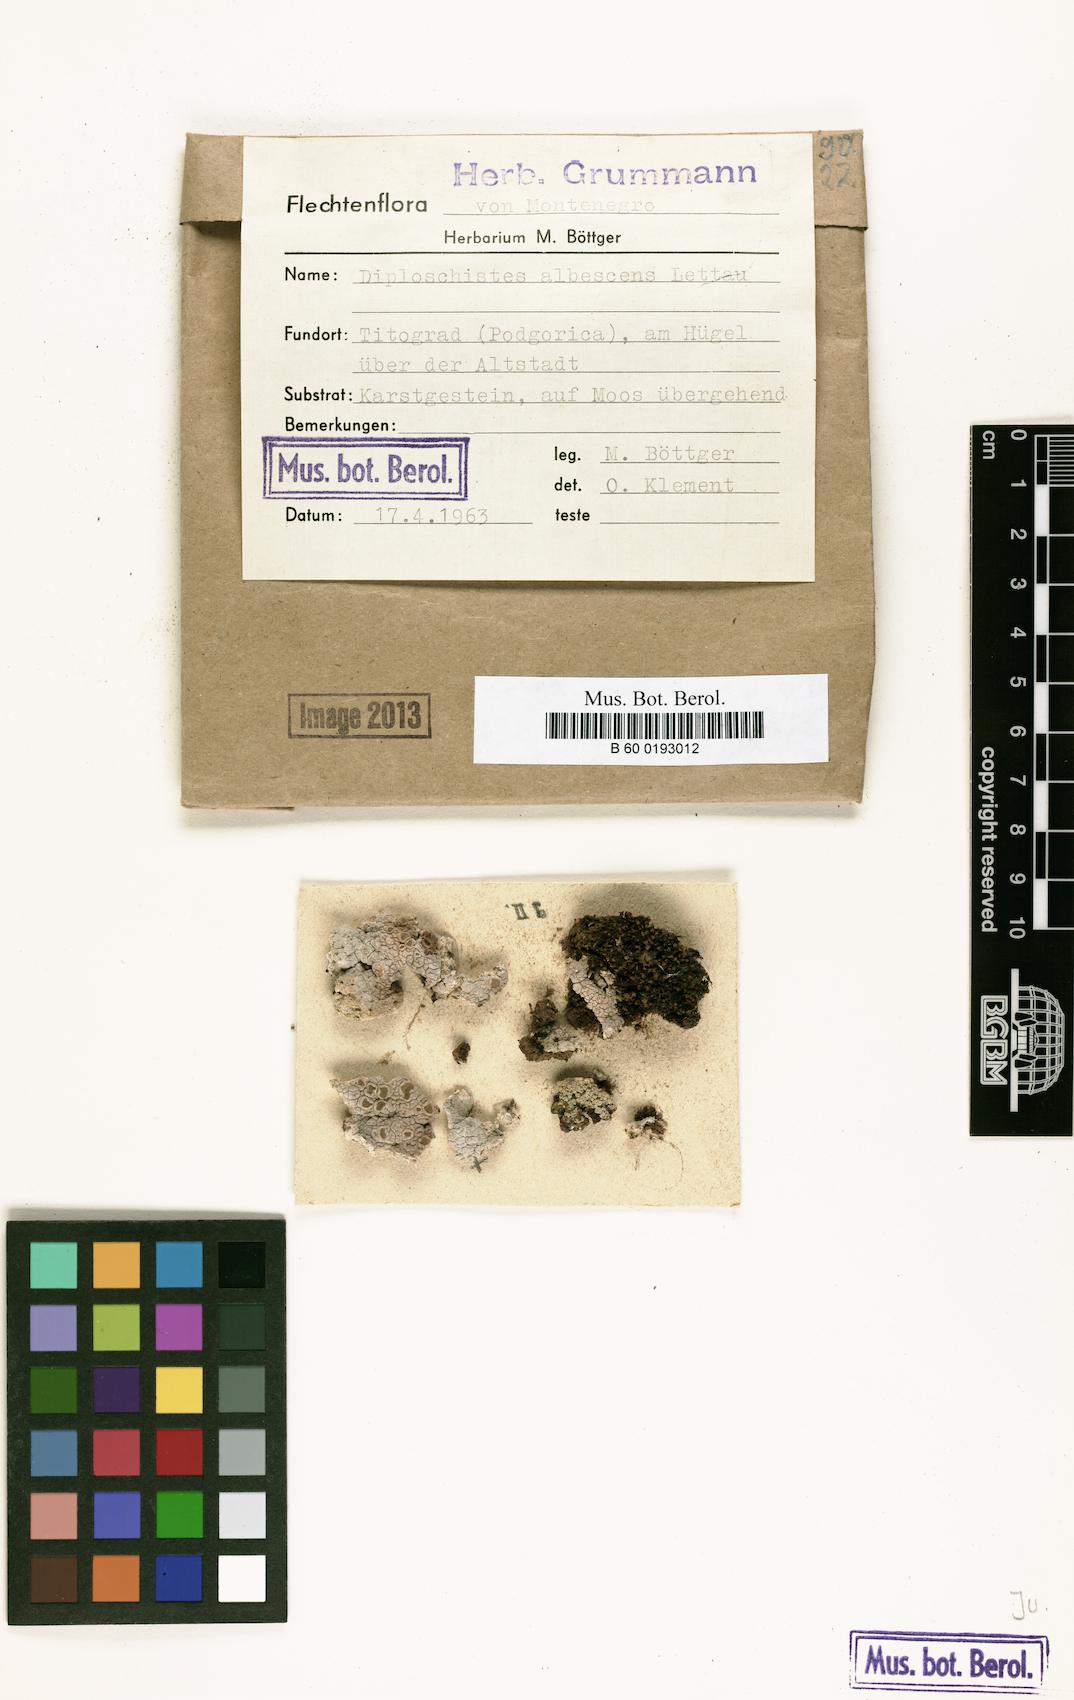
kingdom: Fungi
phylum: Ascomycota
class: Lecanoromycetes
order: Ostropales
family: Graphidaceae
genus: Diploschistes
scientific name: Diploschistes diacapsis
